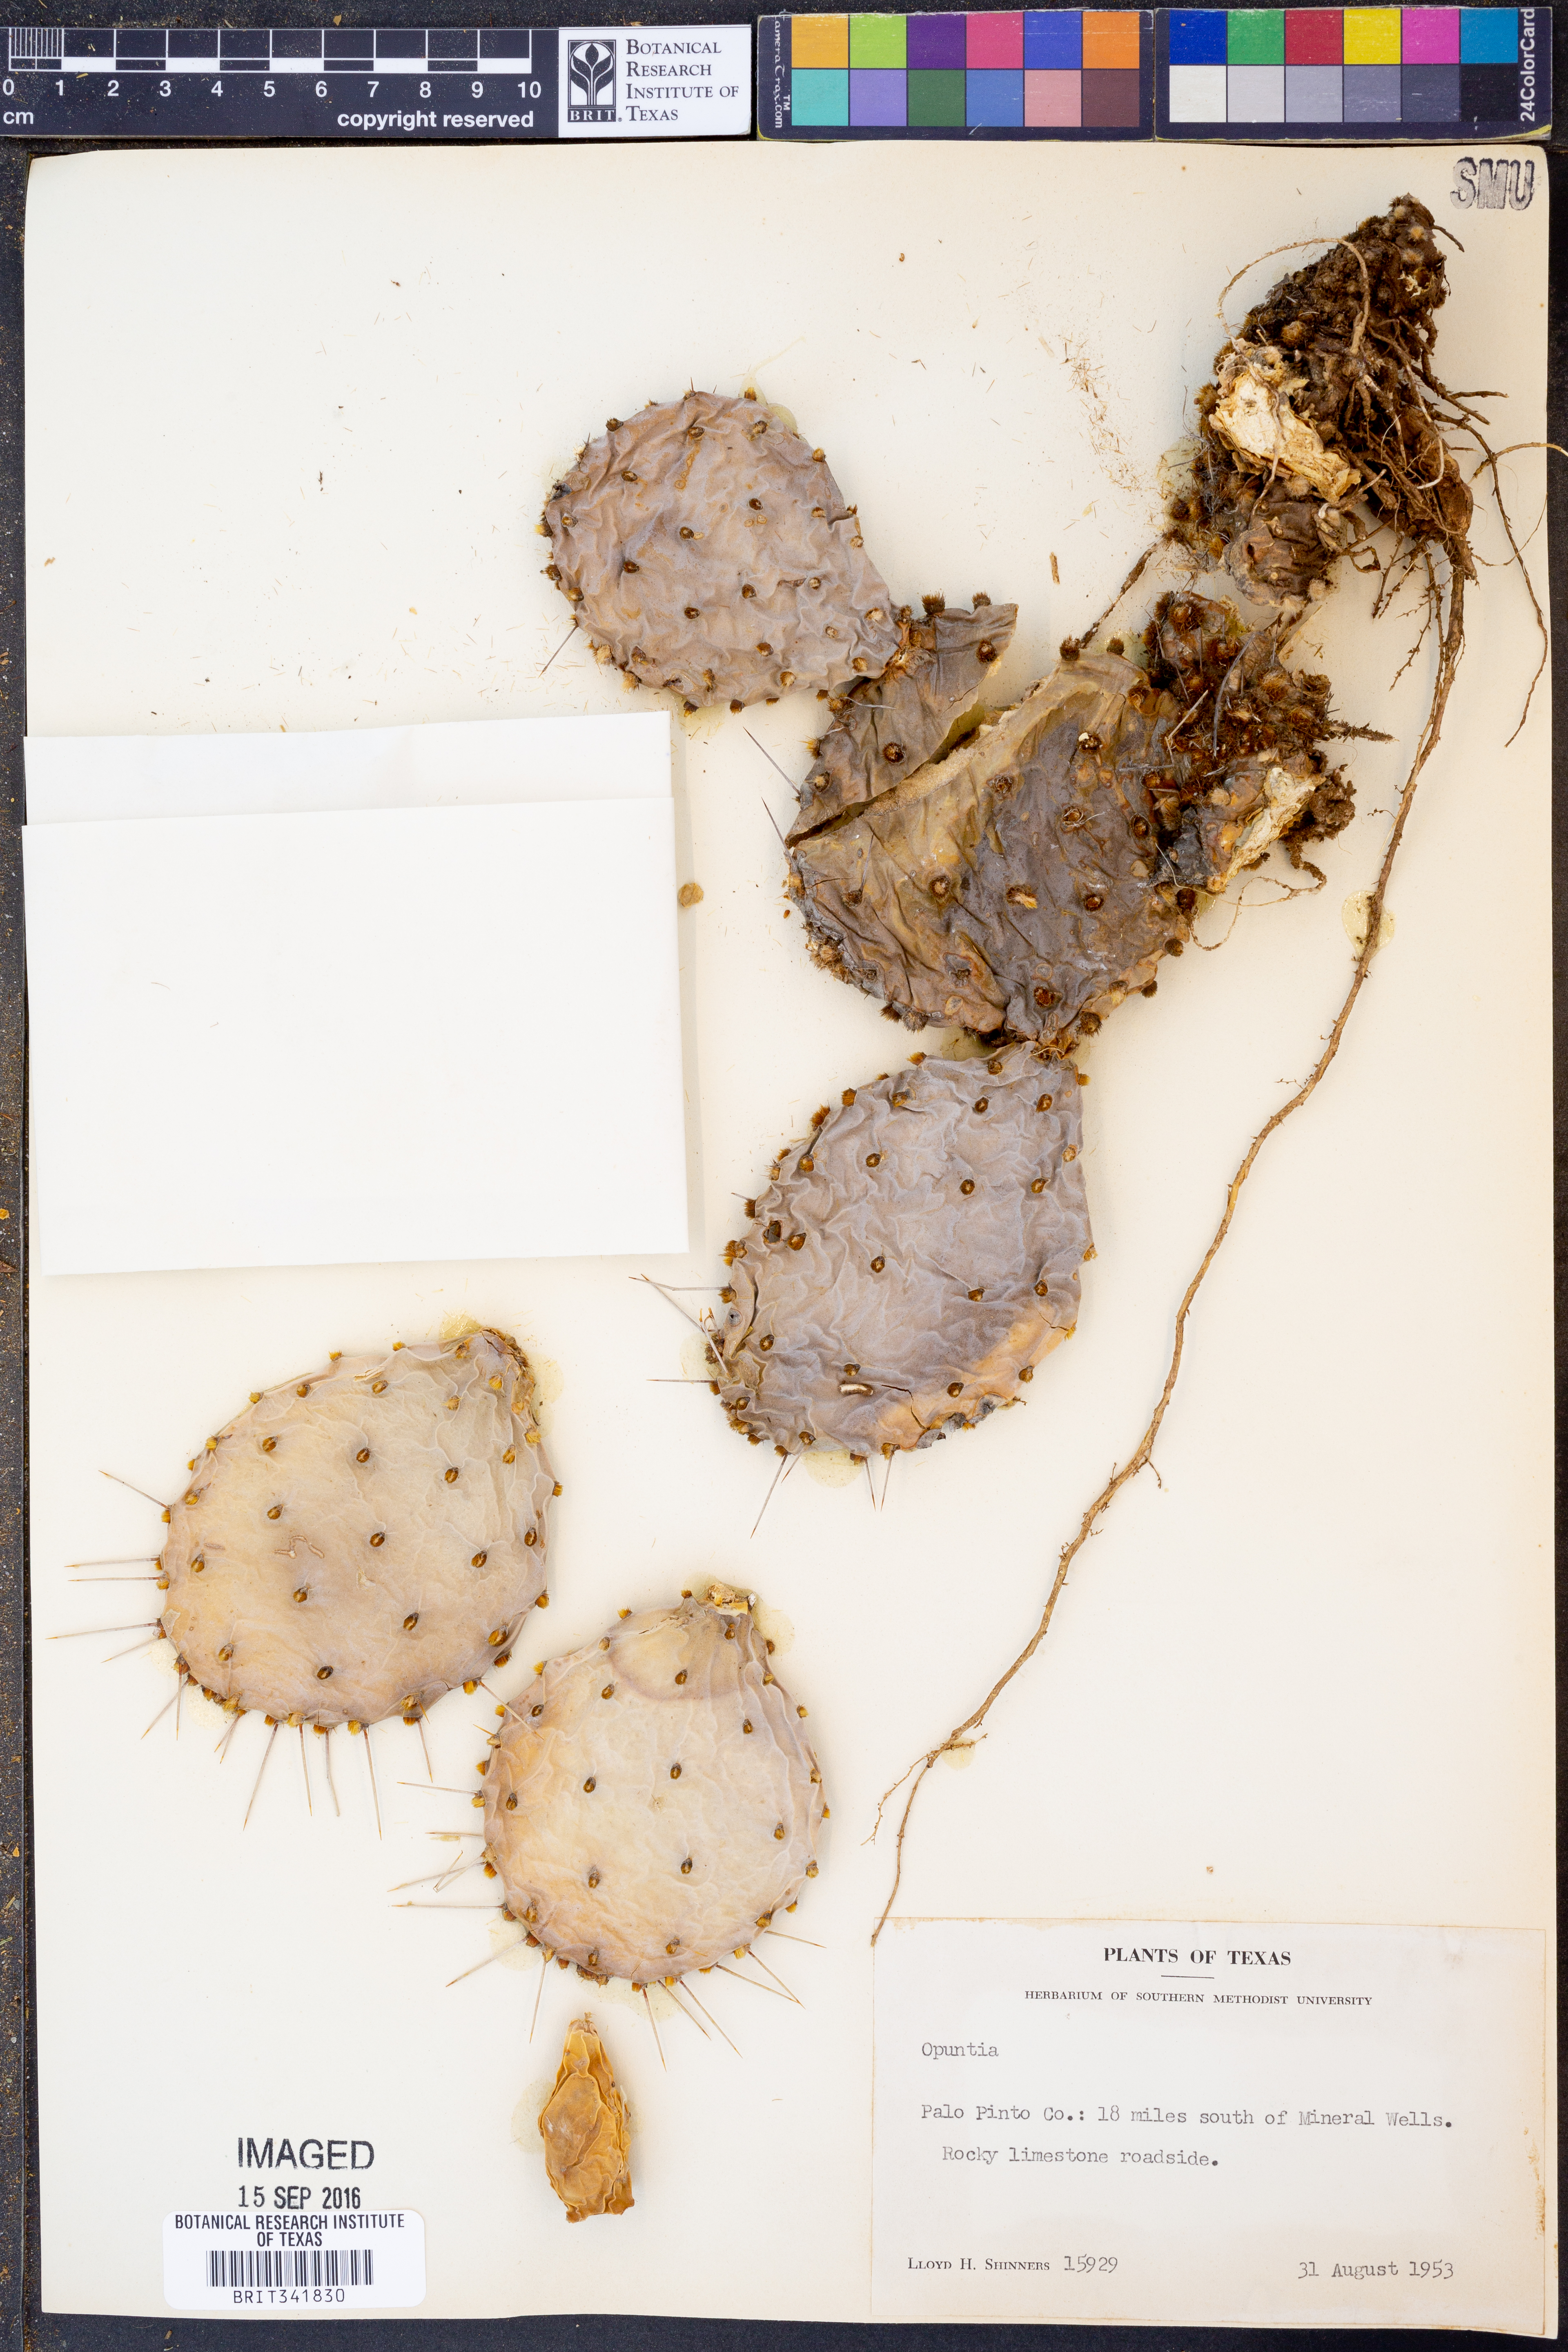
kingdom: Plantae
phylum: Tracheophyta
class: Magnoliopsida
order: Caryophyllales
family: Cactaceae
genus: Opuntia
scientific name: Opuntia
